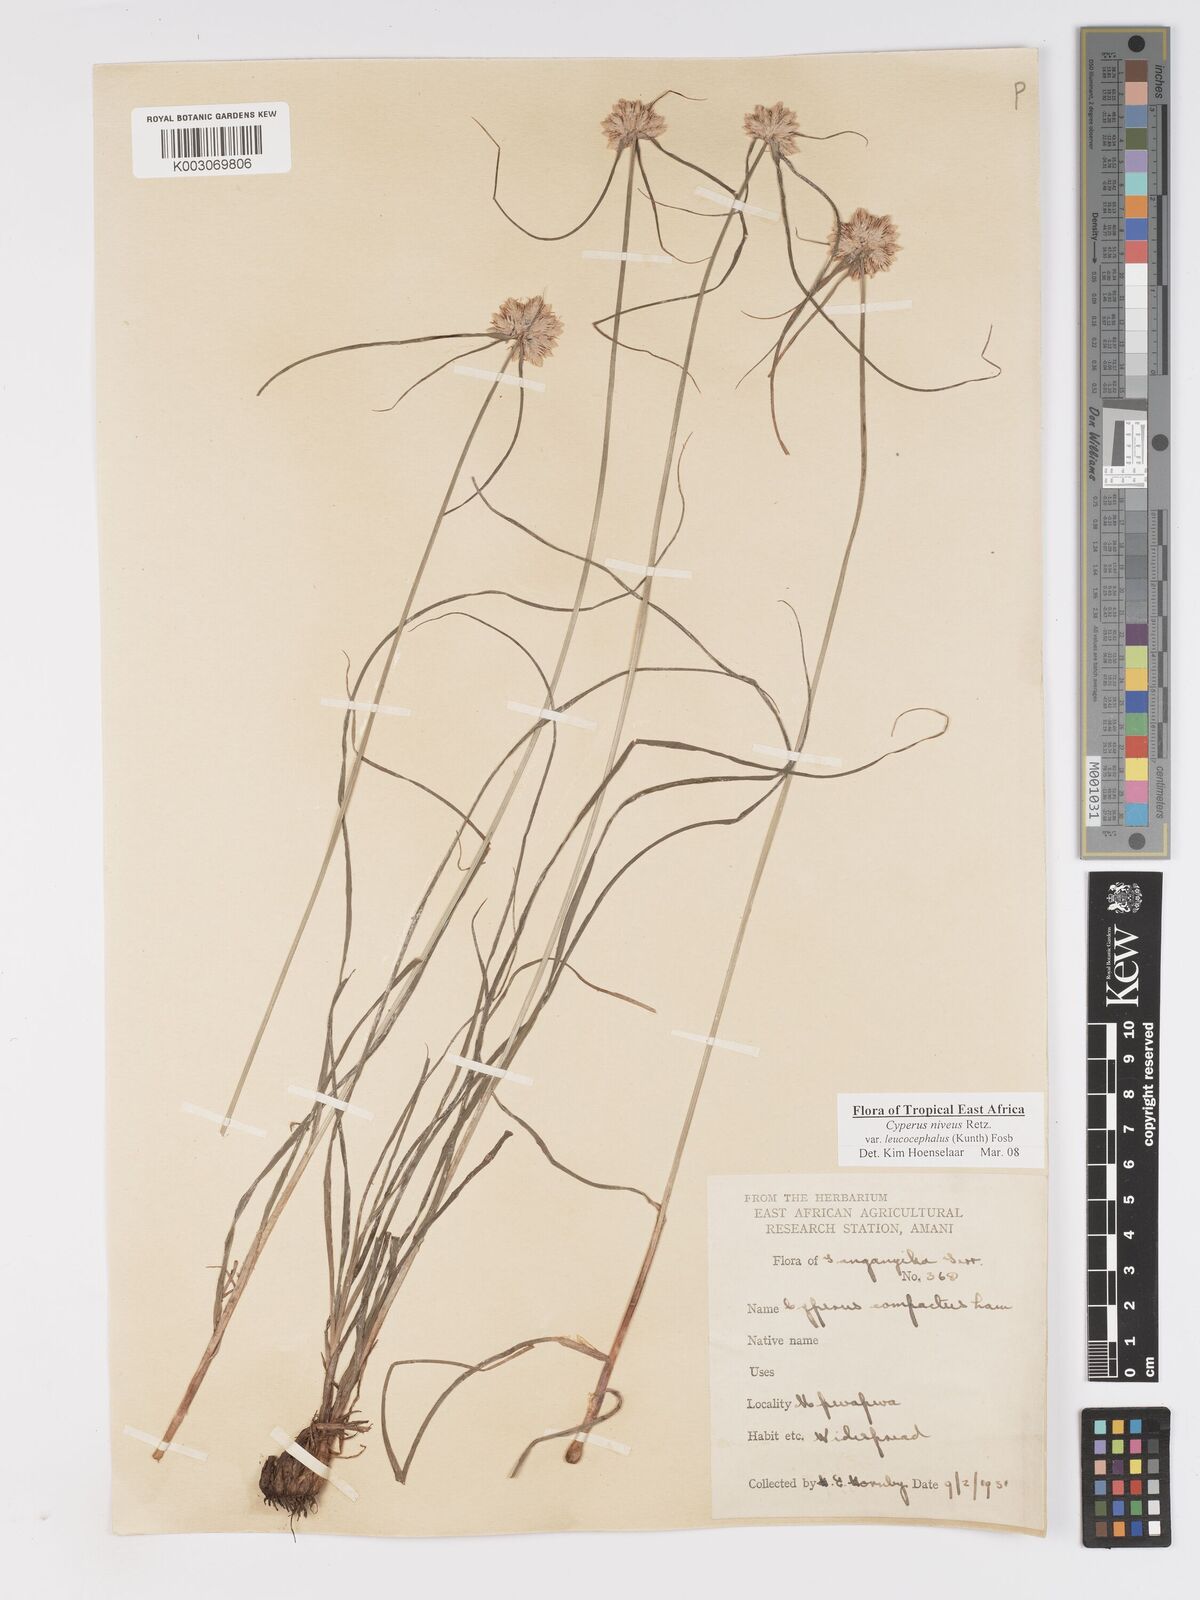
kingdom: Plantae
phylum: Tracheophyta
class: Liliopsida
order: Poales
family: Cyperaceae
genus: Cyperus
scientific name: Cyperus niveus
